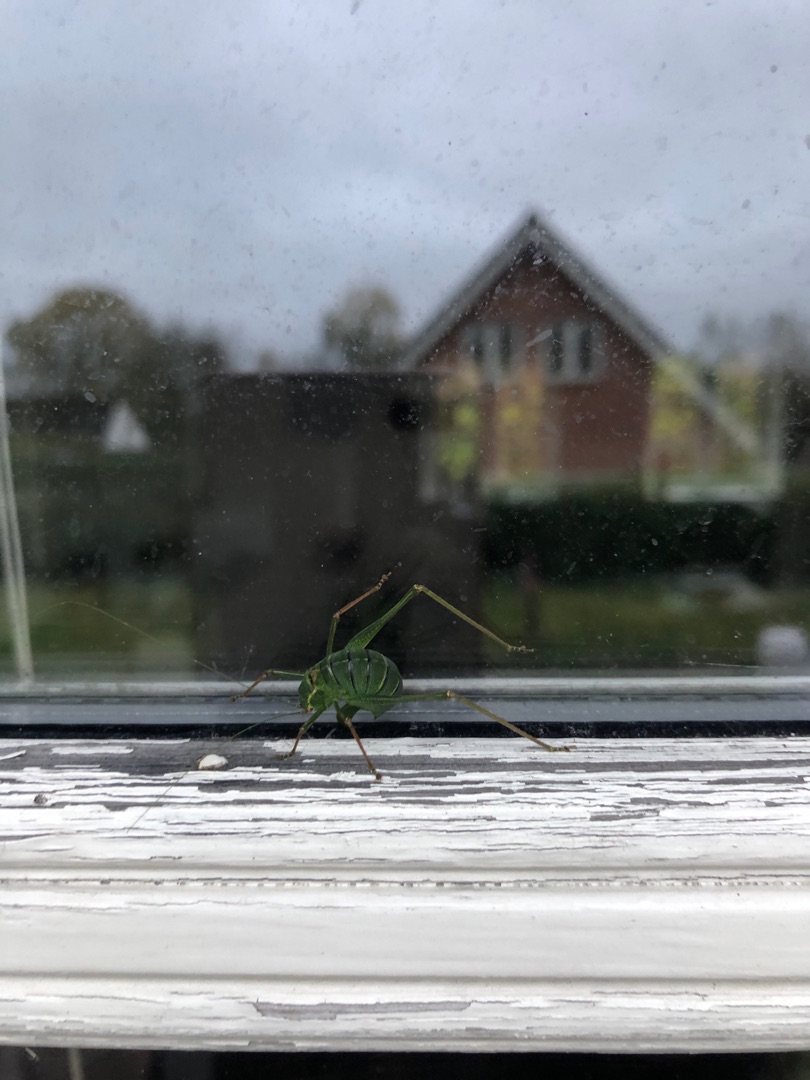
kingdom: Animalia
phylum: Arthropoda
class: Insecta
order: Orthoptera
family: Tettigoniidae
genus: Leptophyes
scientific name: Leptophyes punctatissima
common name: Krumknivgræshoppe
